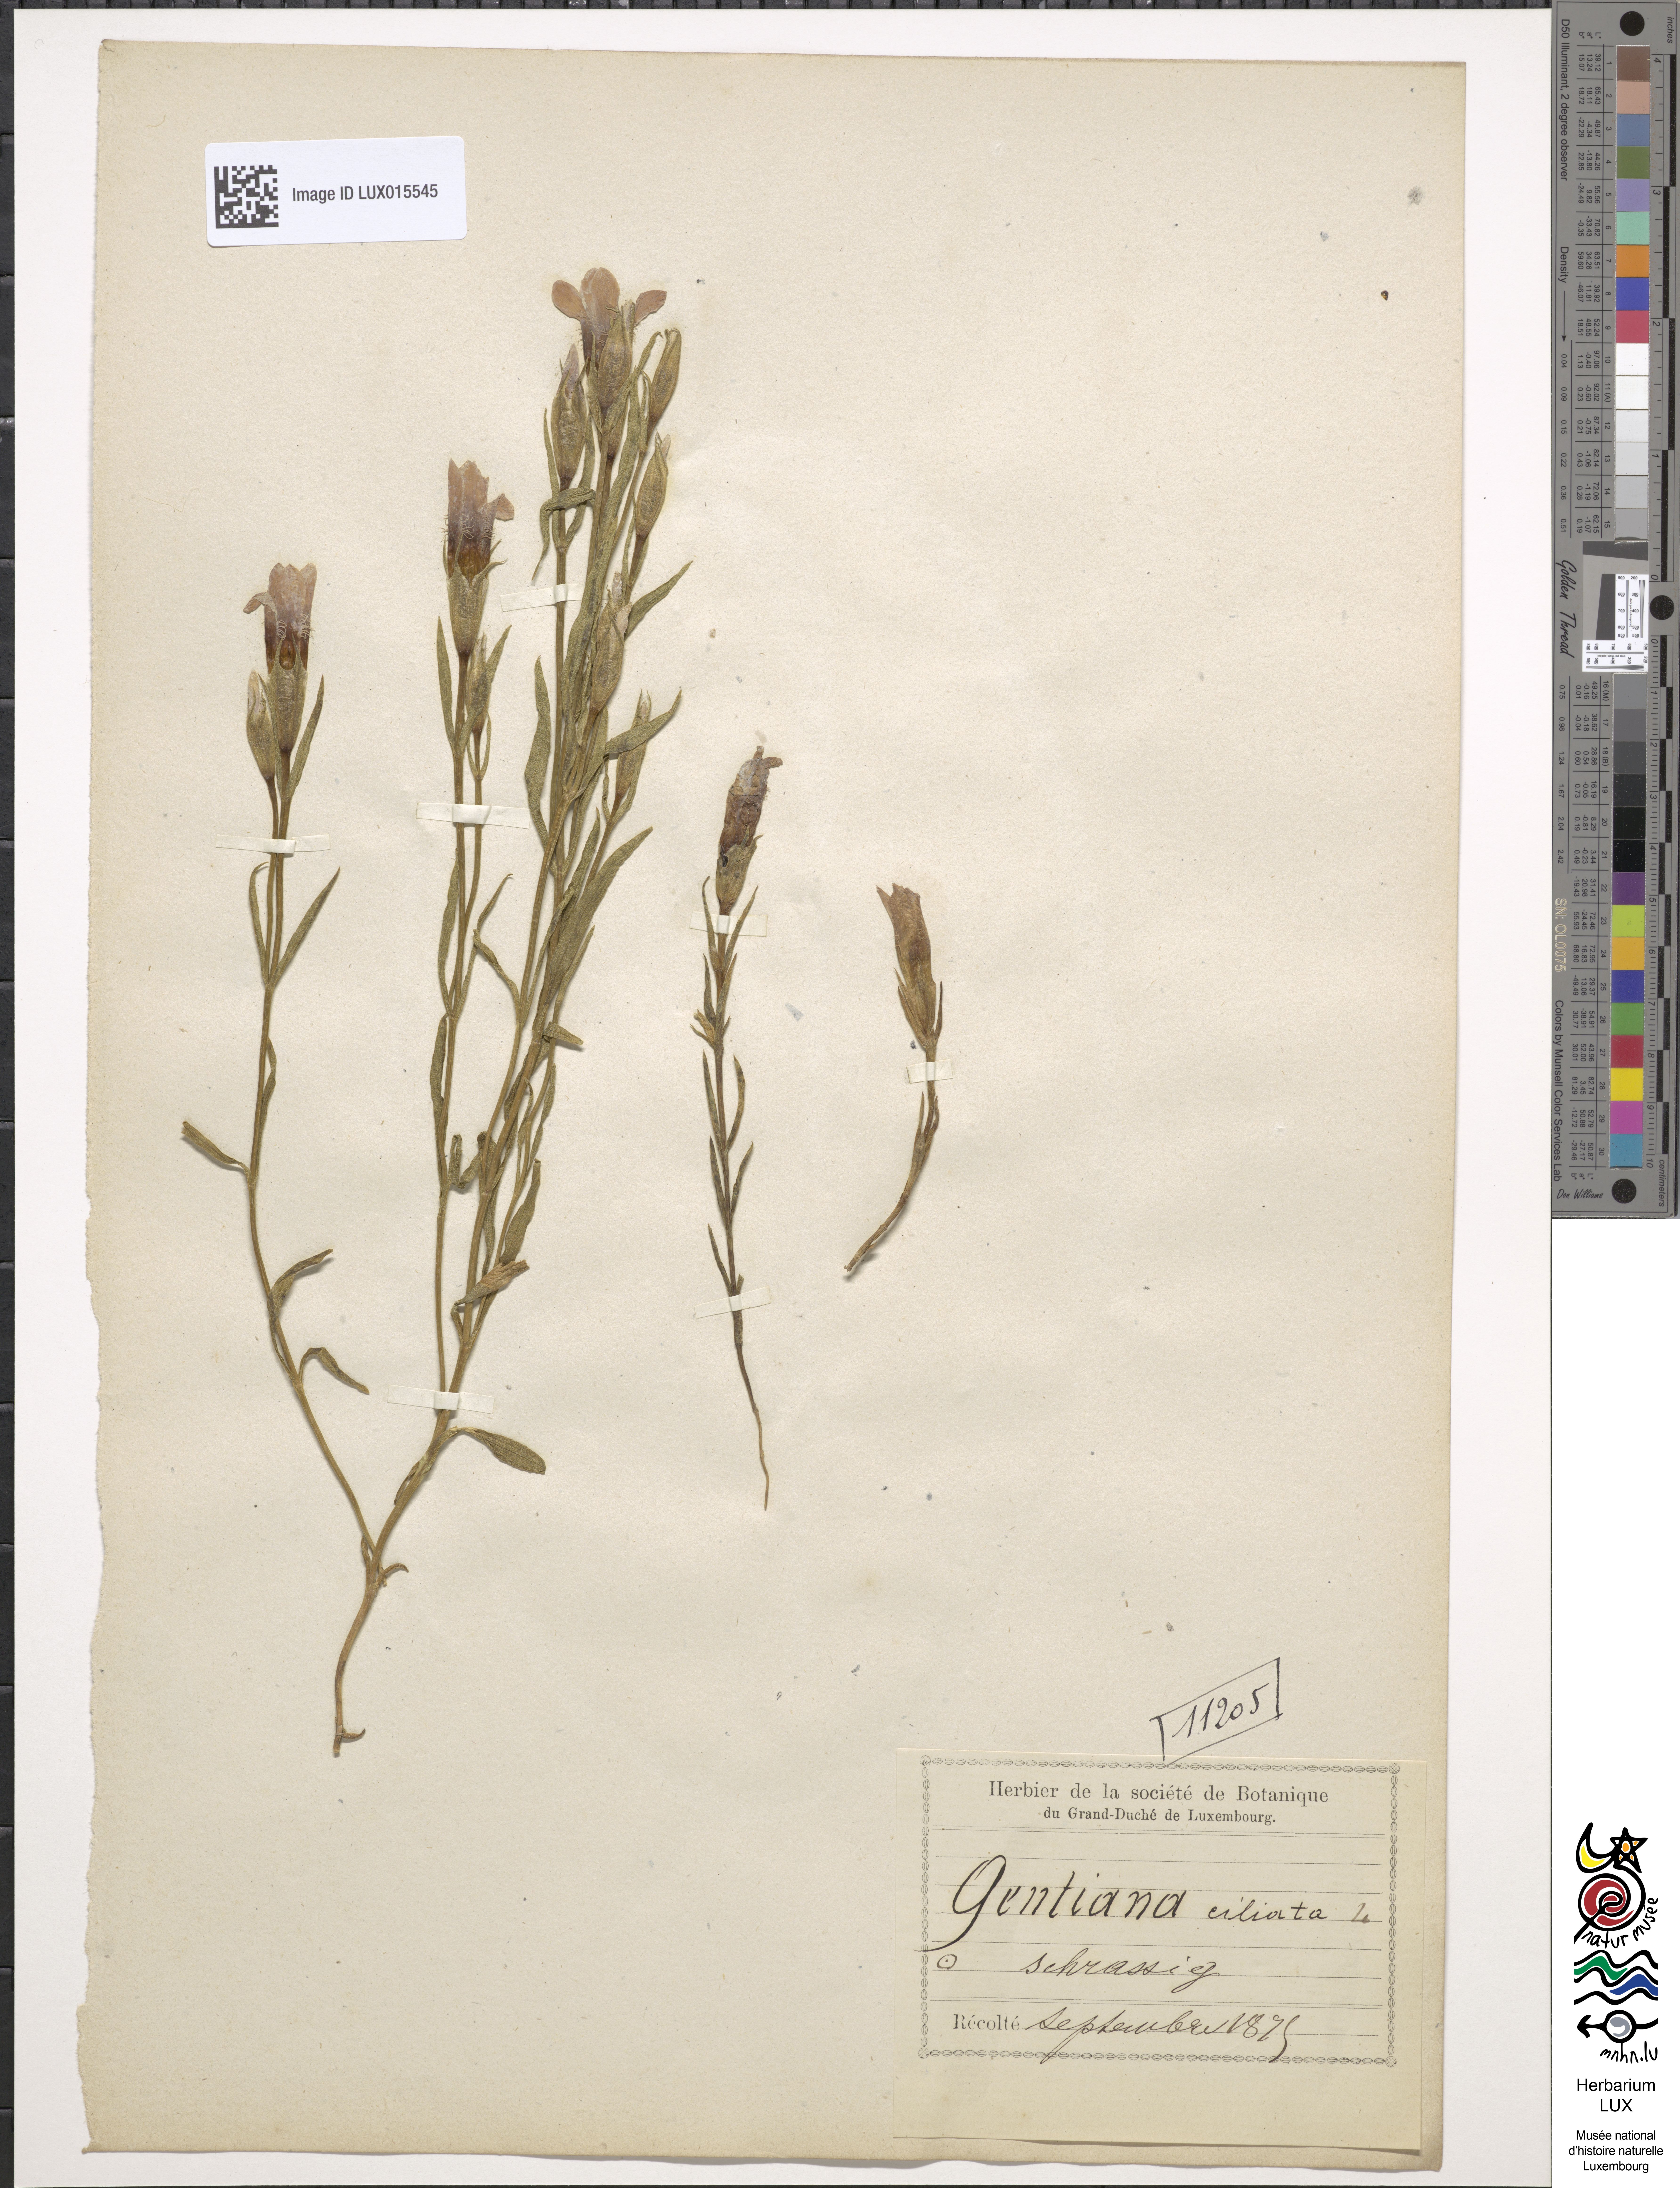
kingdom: Plantae
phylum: Tracheophyta
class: Magnoliopsida
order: Gentianales
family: Gentianaceae
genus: Gentianopsis
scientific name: Gentianopsis ciliata
